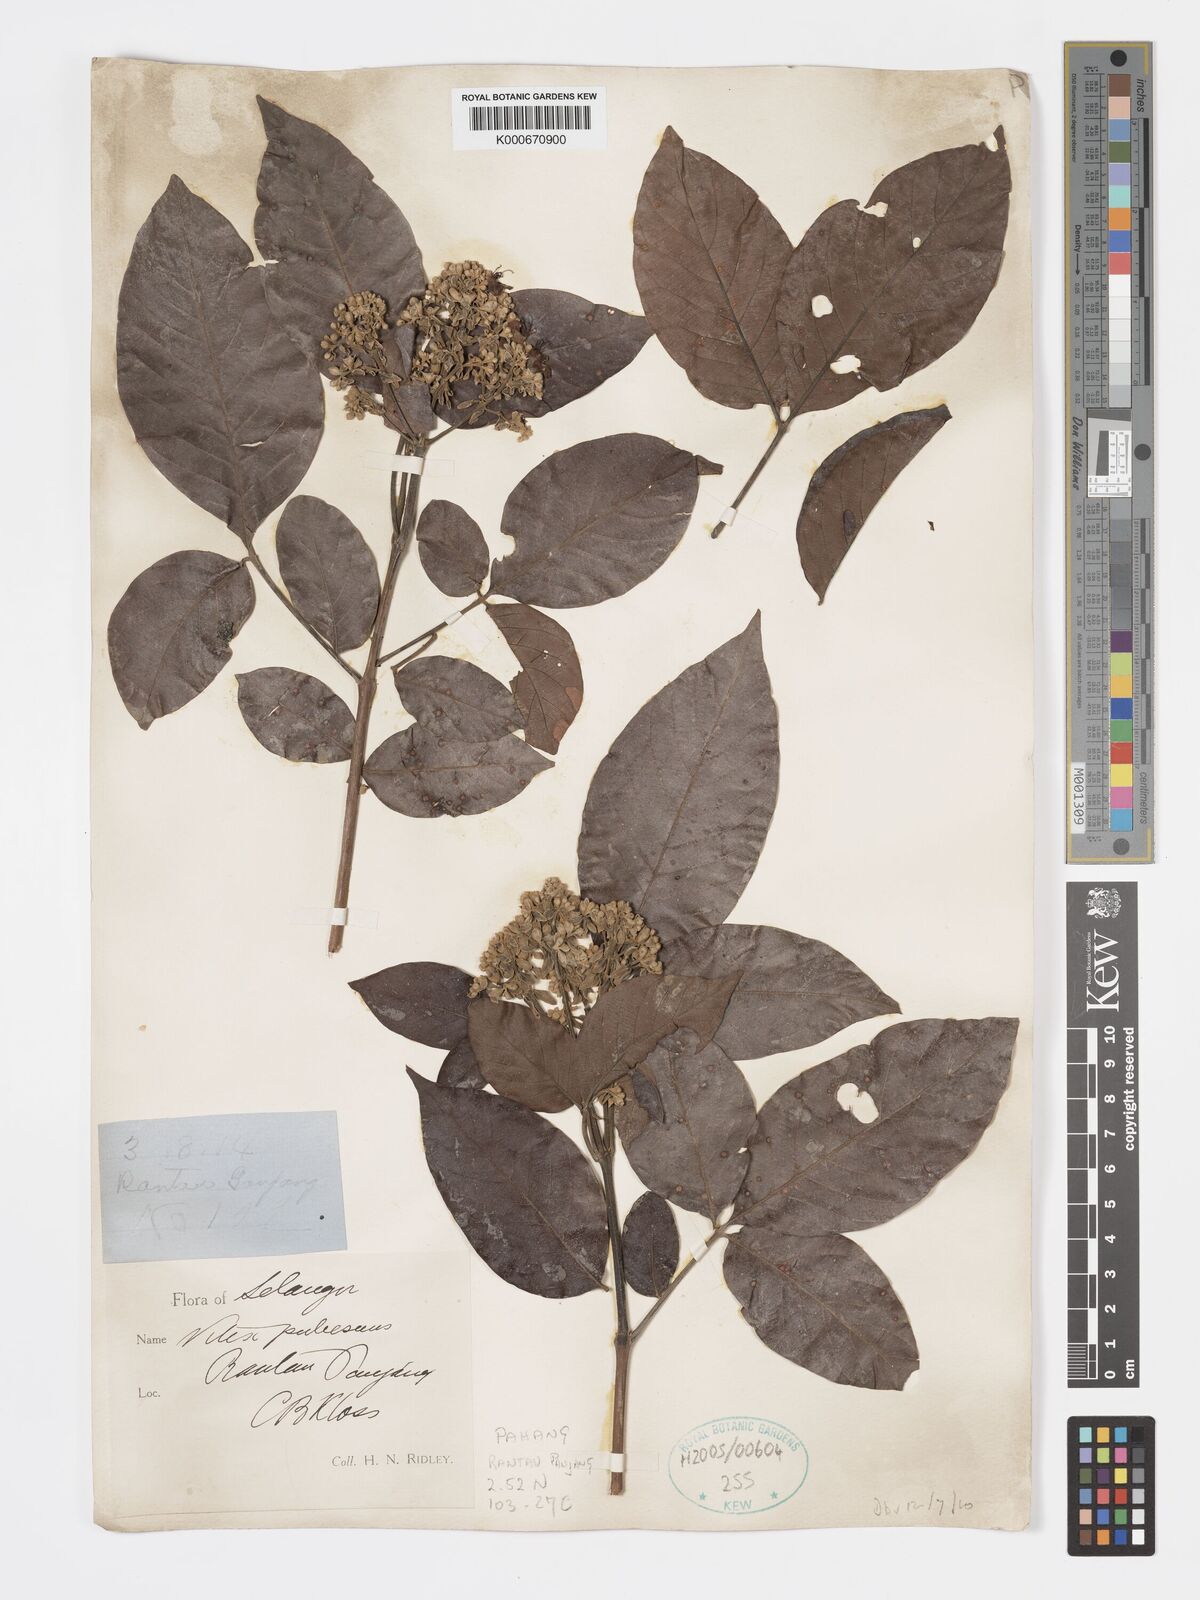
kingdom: Plantae
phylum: Tracheophyta
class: Magnoliopsida
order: Lamiales
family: Lamiaceae
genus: Vitex
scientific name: Vitex pinnata
